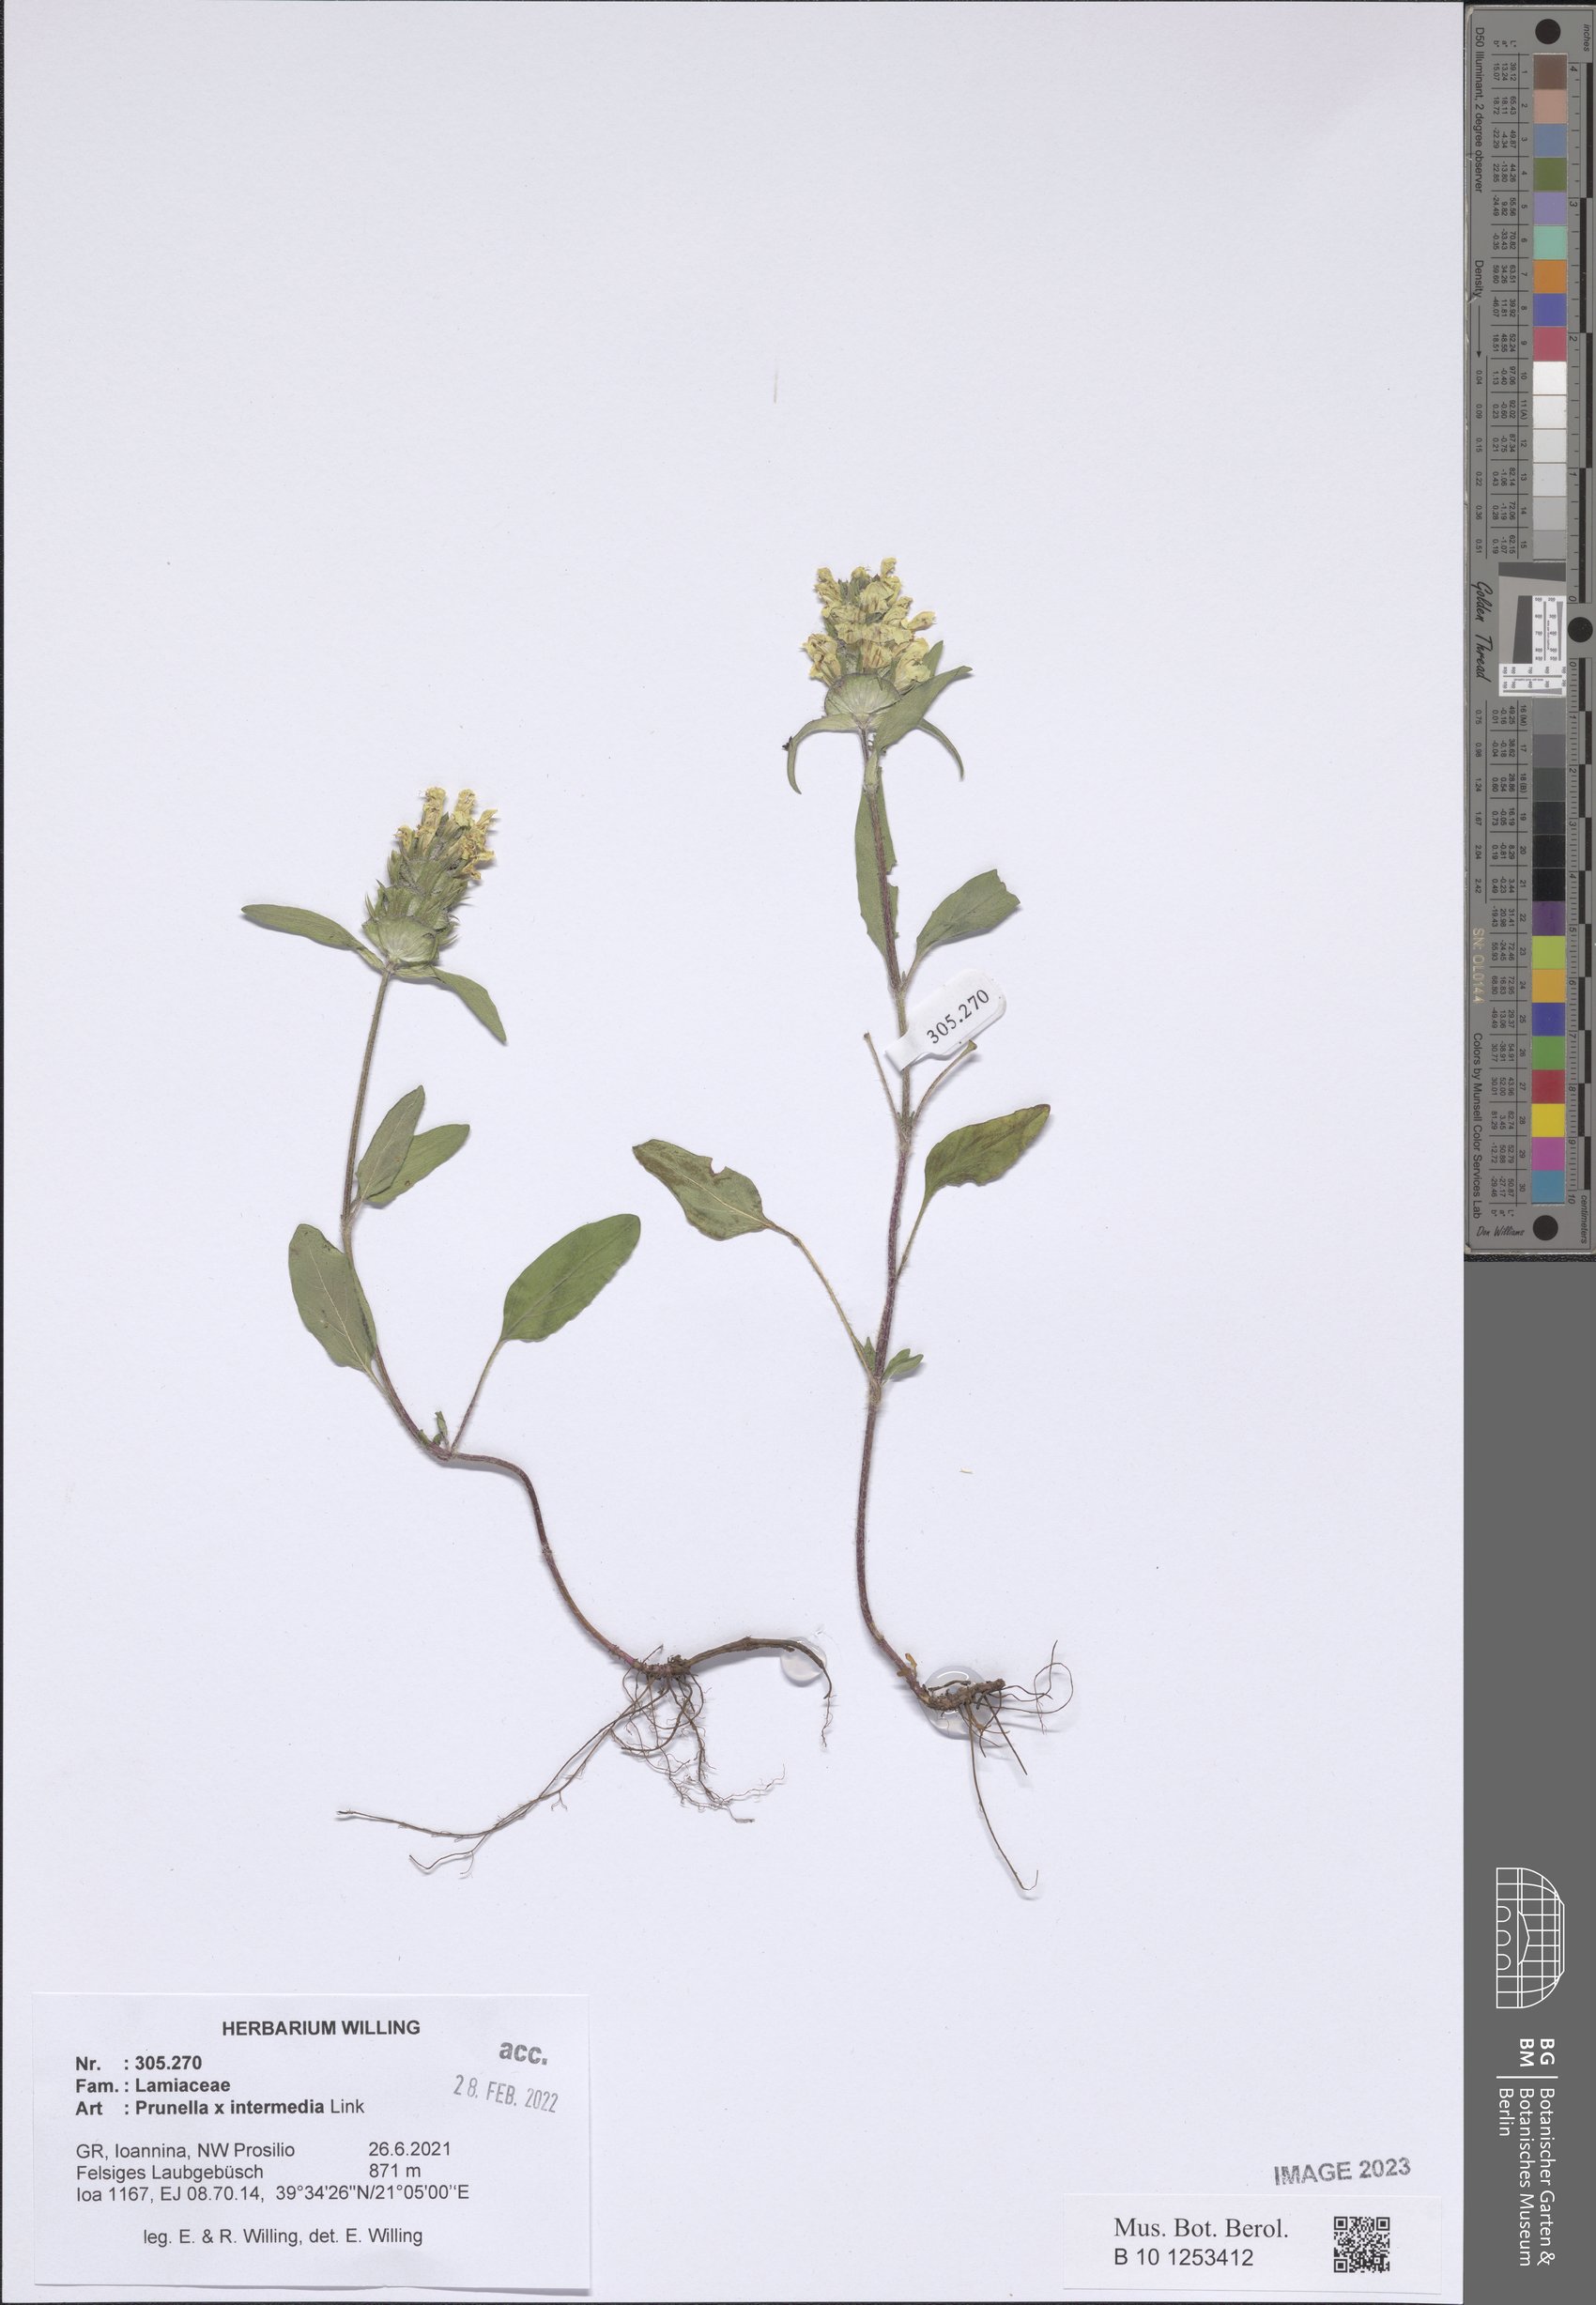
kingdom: Plantae
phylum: Tracheophyta
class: Magnoliopsida
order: Lamiales
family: Lamiaceae
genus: Prunella
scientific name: Prunella
